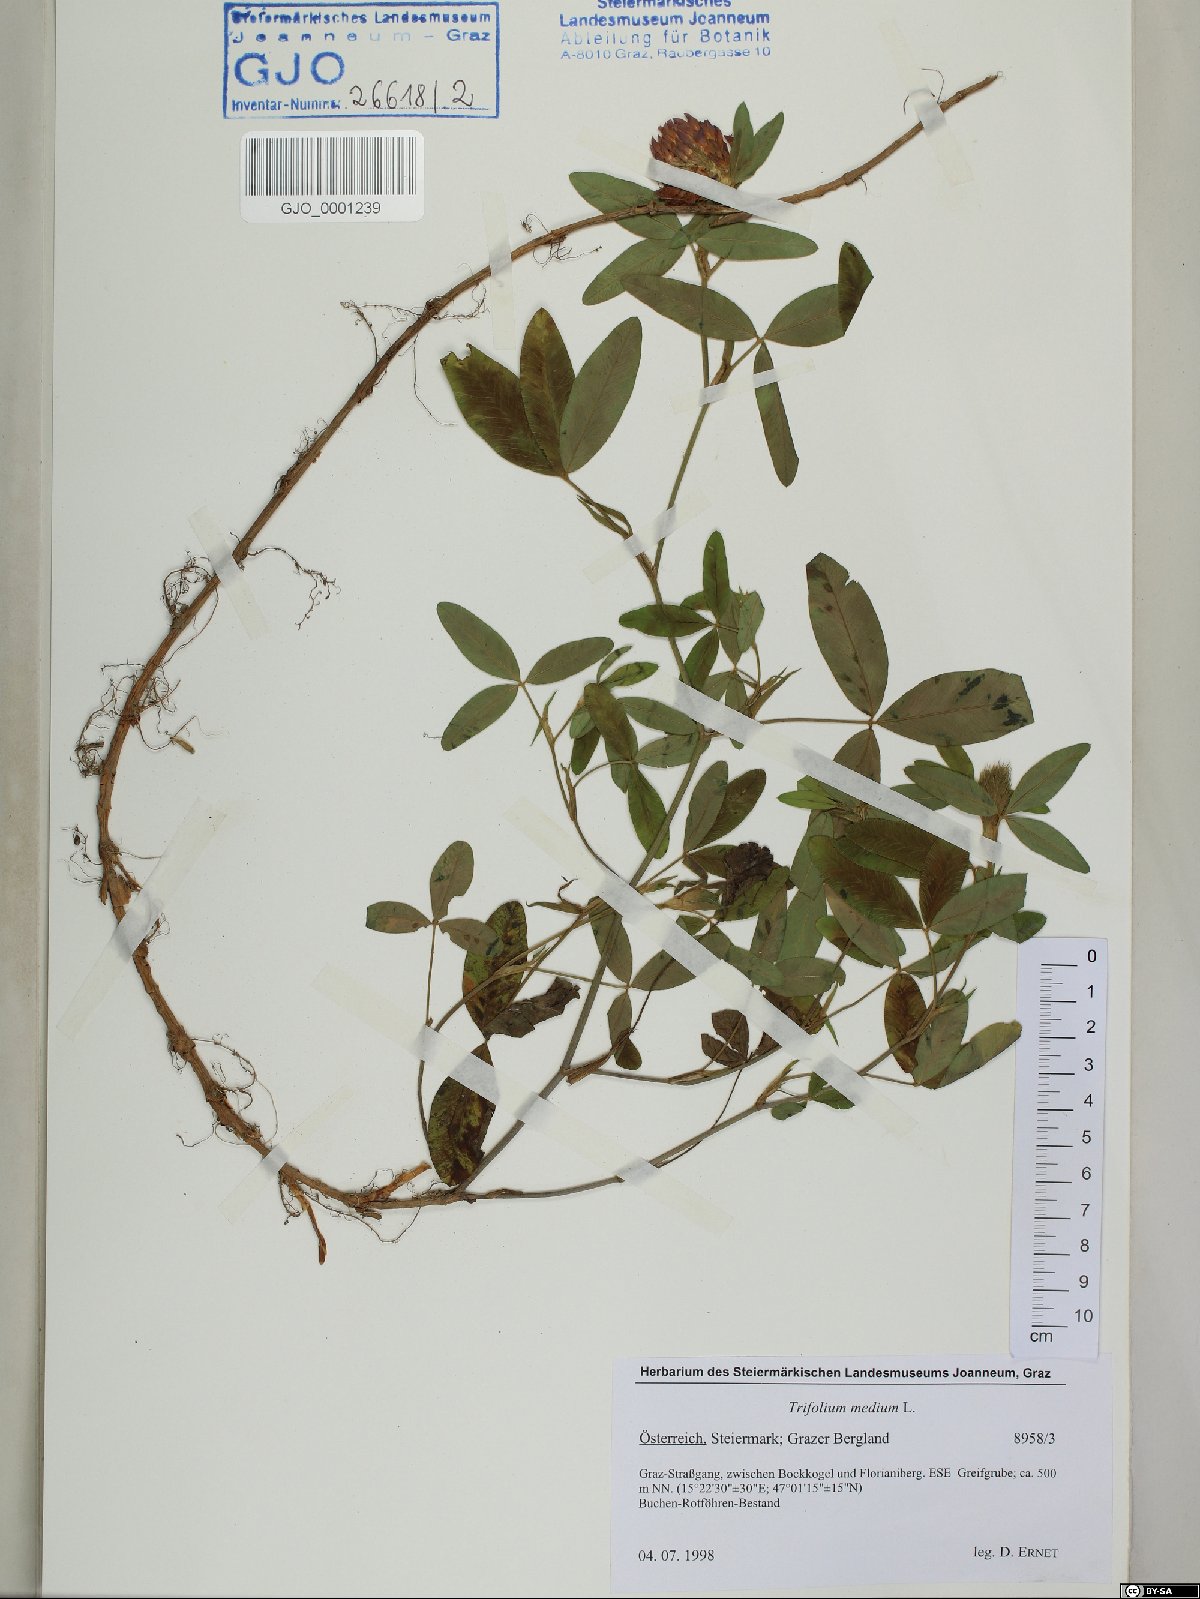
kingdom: Plantae
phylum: Tracheophyta
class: Magnoliopsida
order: Fabales
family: Fabaceae
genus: Trifolium
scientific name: Trifolium medium
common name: Zigzag clover
